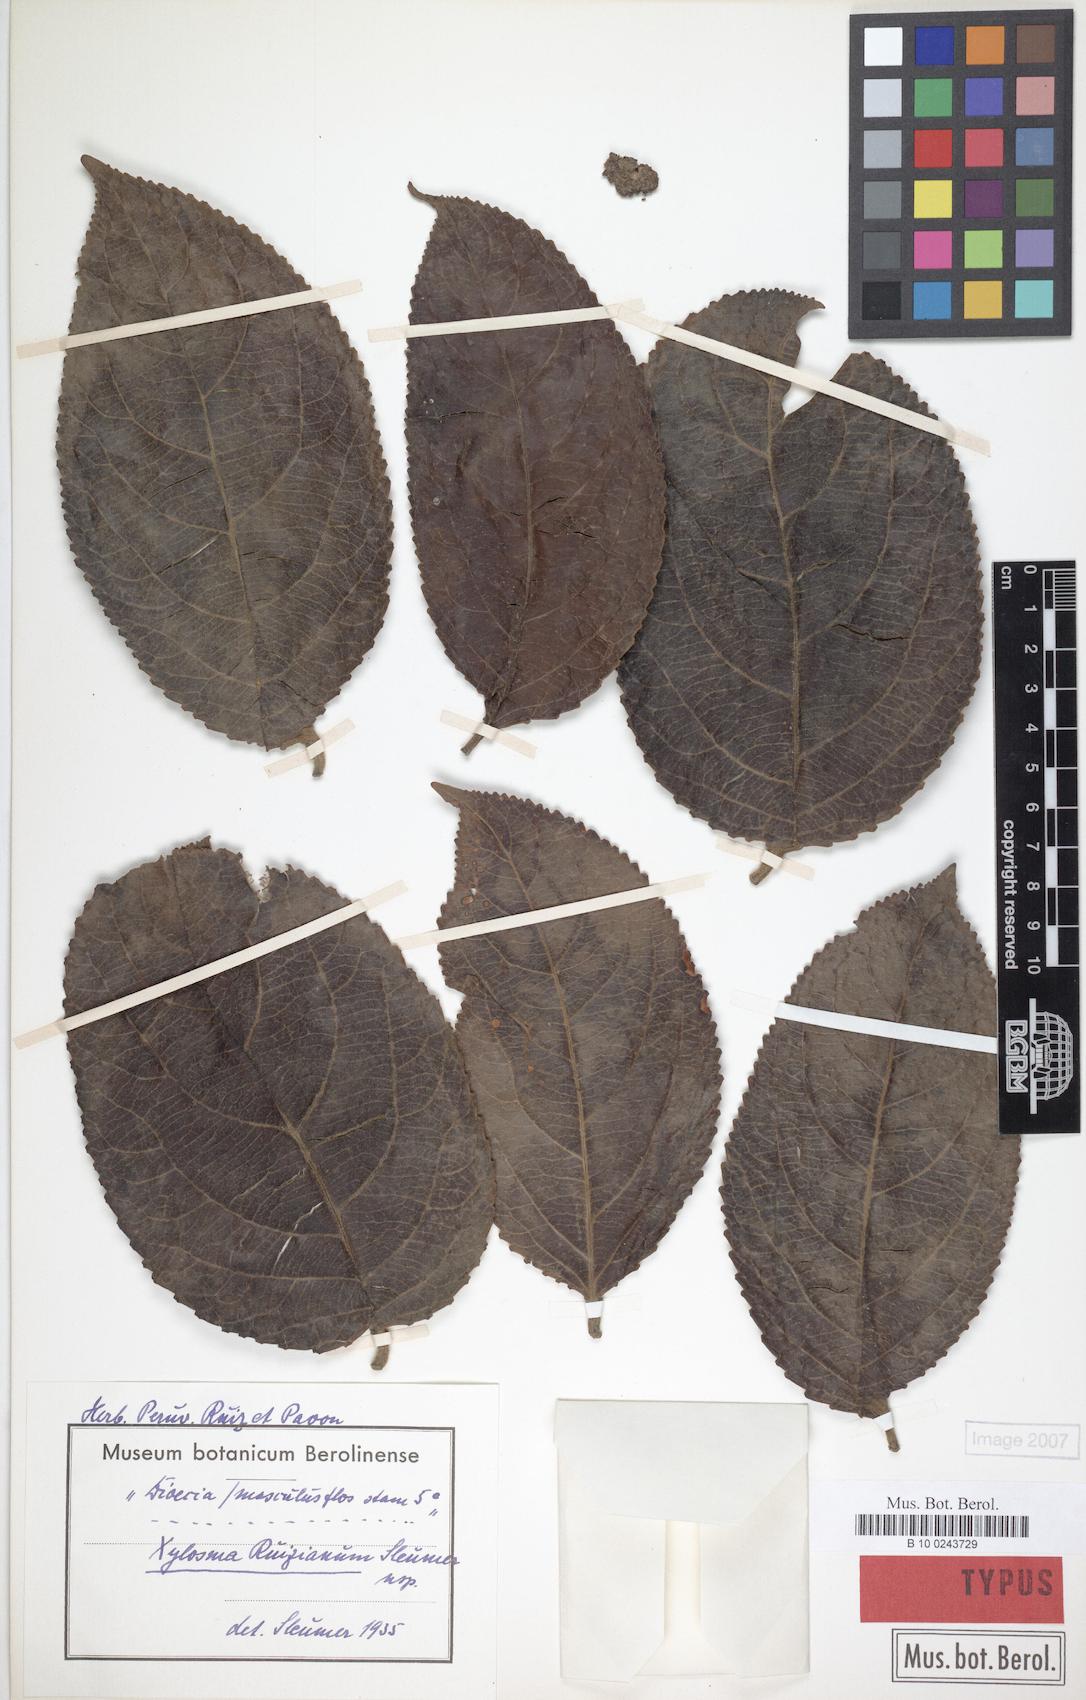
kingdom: Plantae
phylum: Tracheophyta
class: Magnoliopsida
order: Malpighiales
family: Salicaceae
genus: Xylosma
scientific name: Xylosma ruiziana
